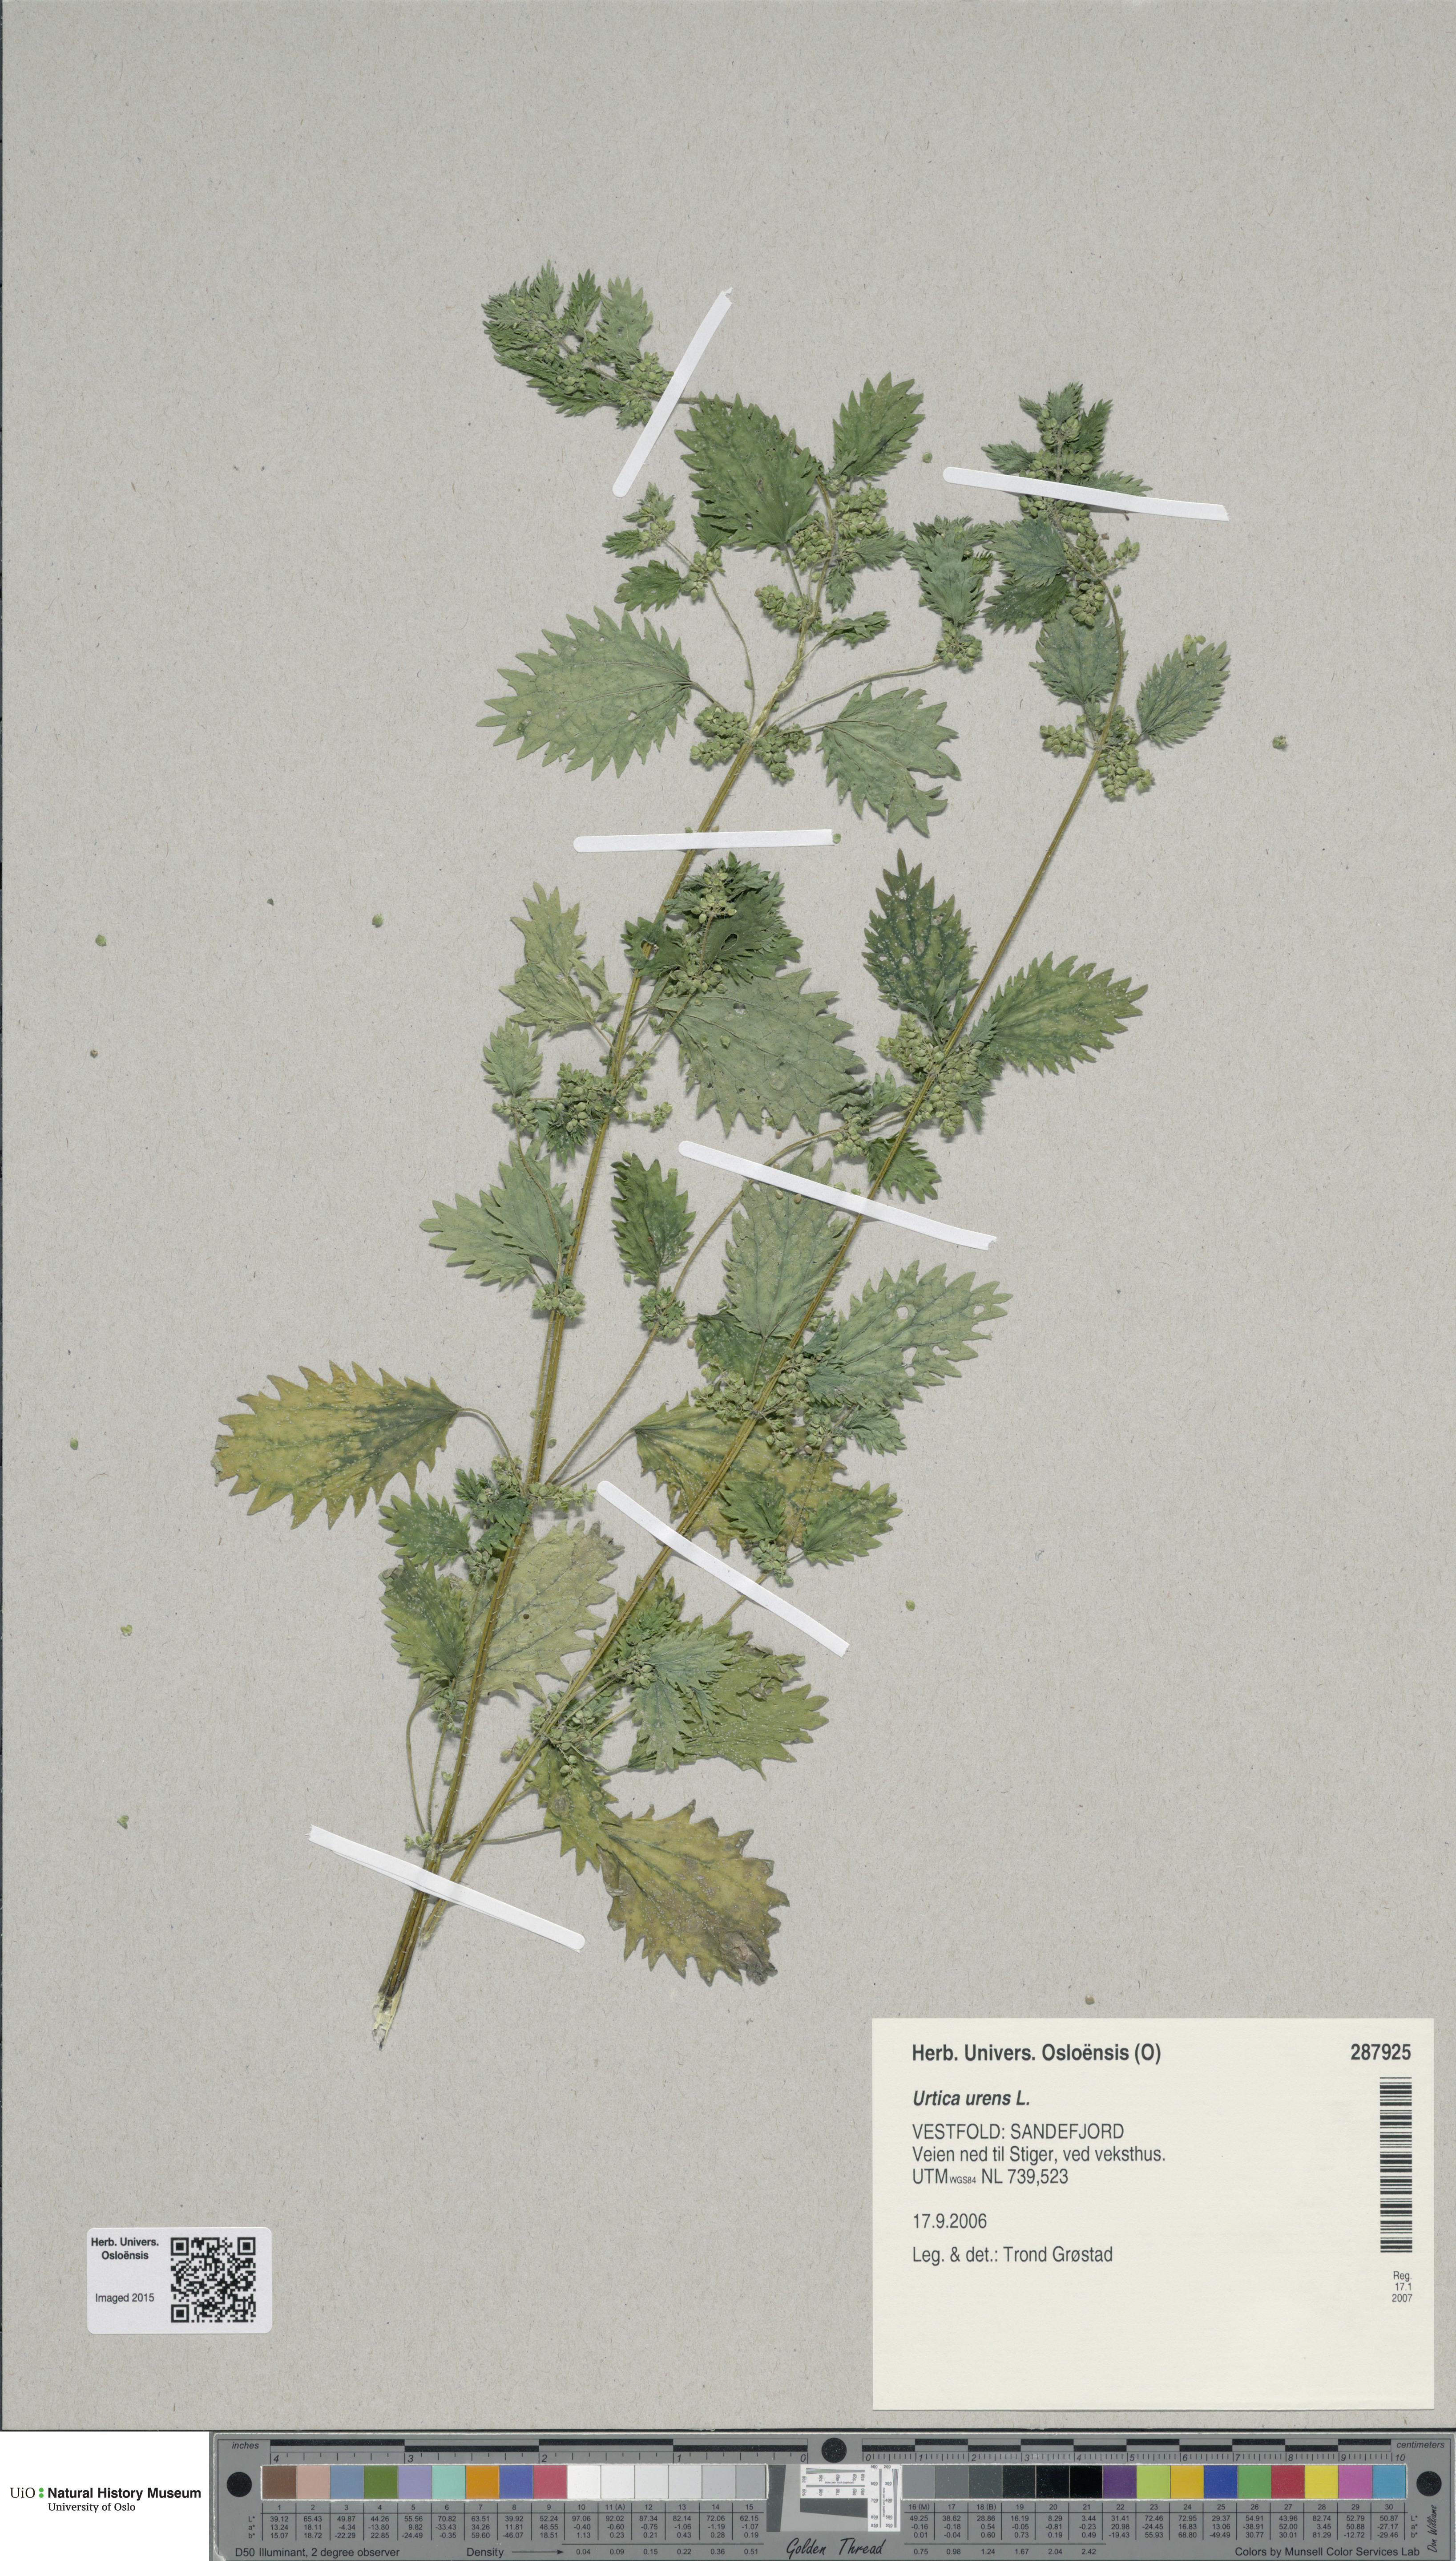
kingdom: Plantae
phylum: Tracheophyta
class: Magnoliopsida
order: Rosales
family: Urticaceae
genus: Urtica
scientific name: Urtica urens
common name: Dwarf nettle
